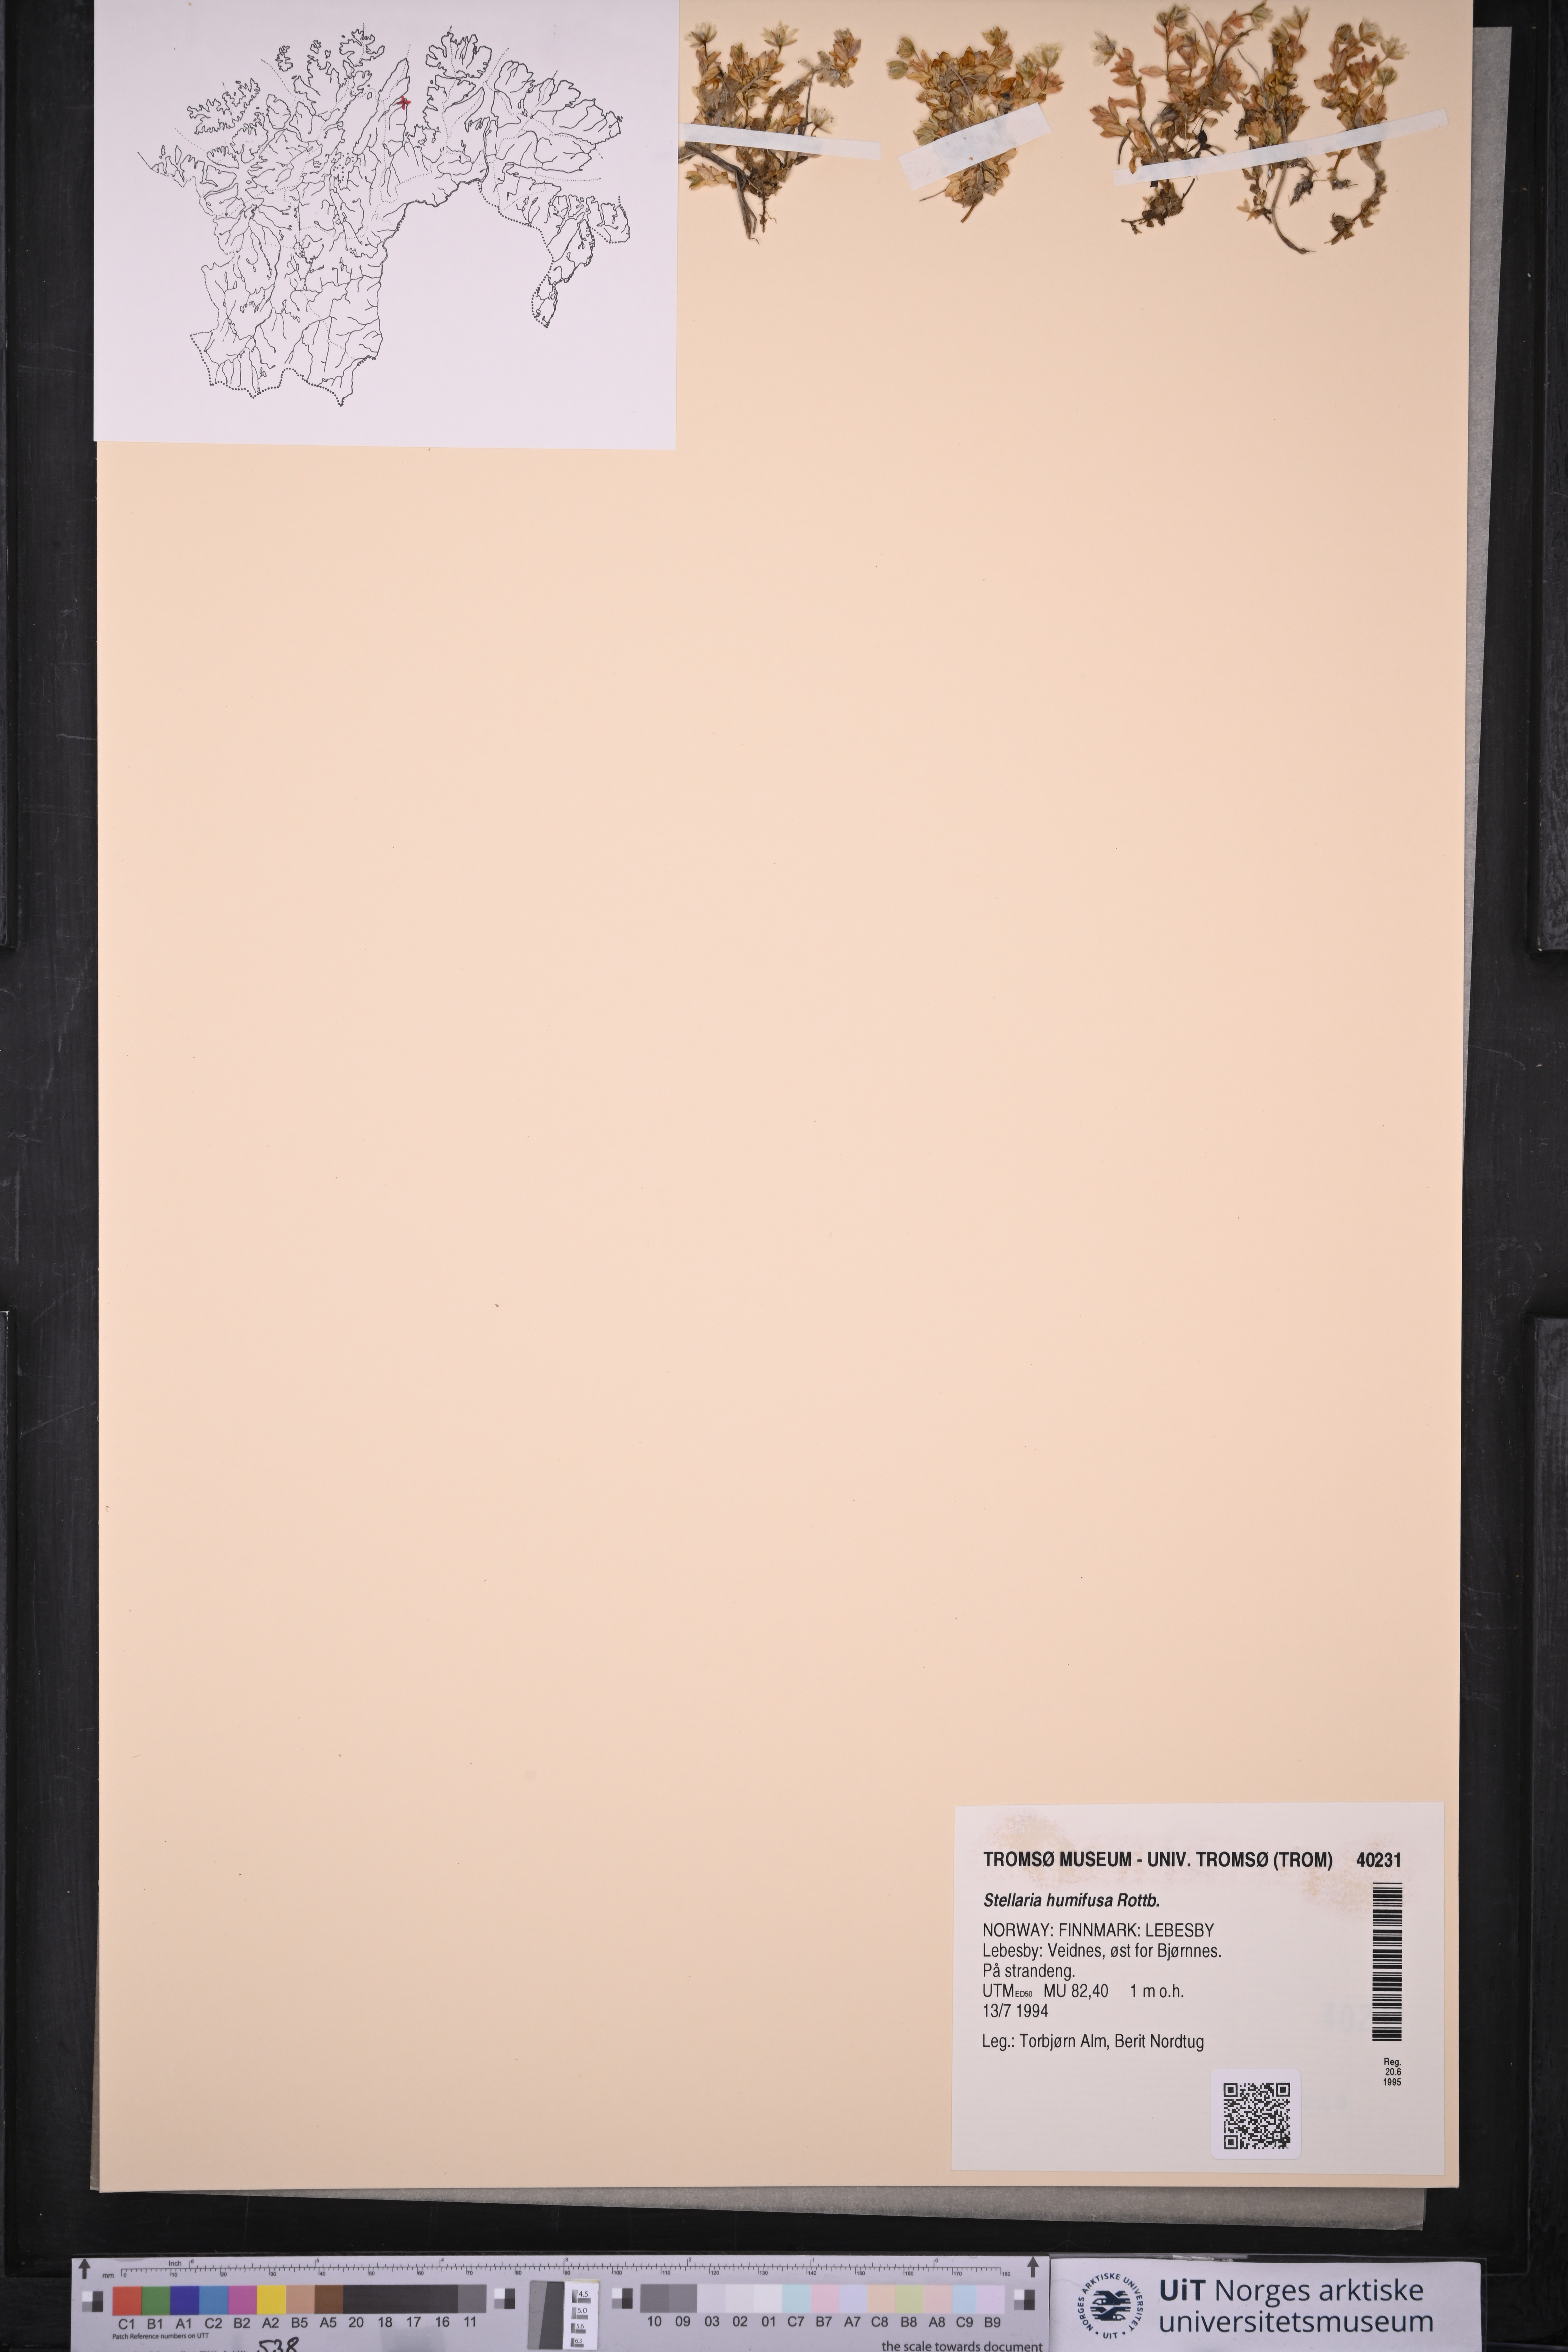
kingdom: Plantae
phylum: Tracheophyta
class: Magnoliopsida
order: Caryophyllales
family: Caryophyllaceae
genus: Stellaria
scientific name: Stellaria humifusa
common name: Creeping starwort
